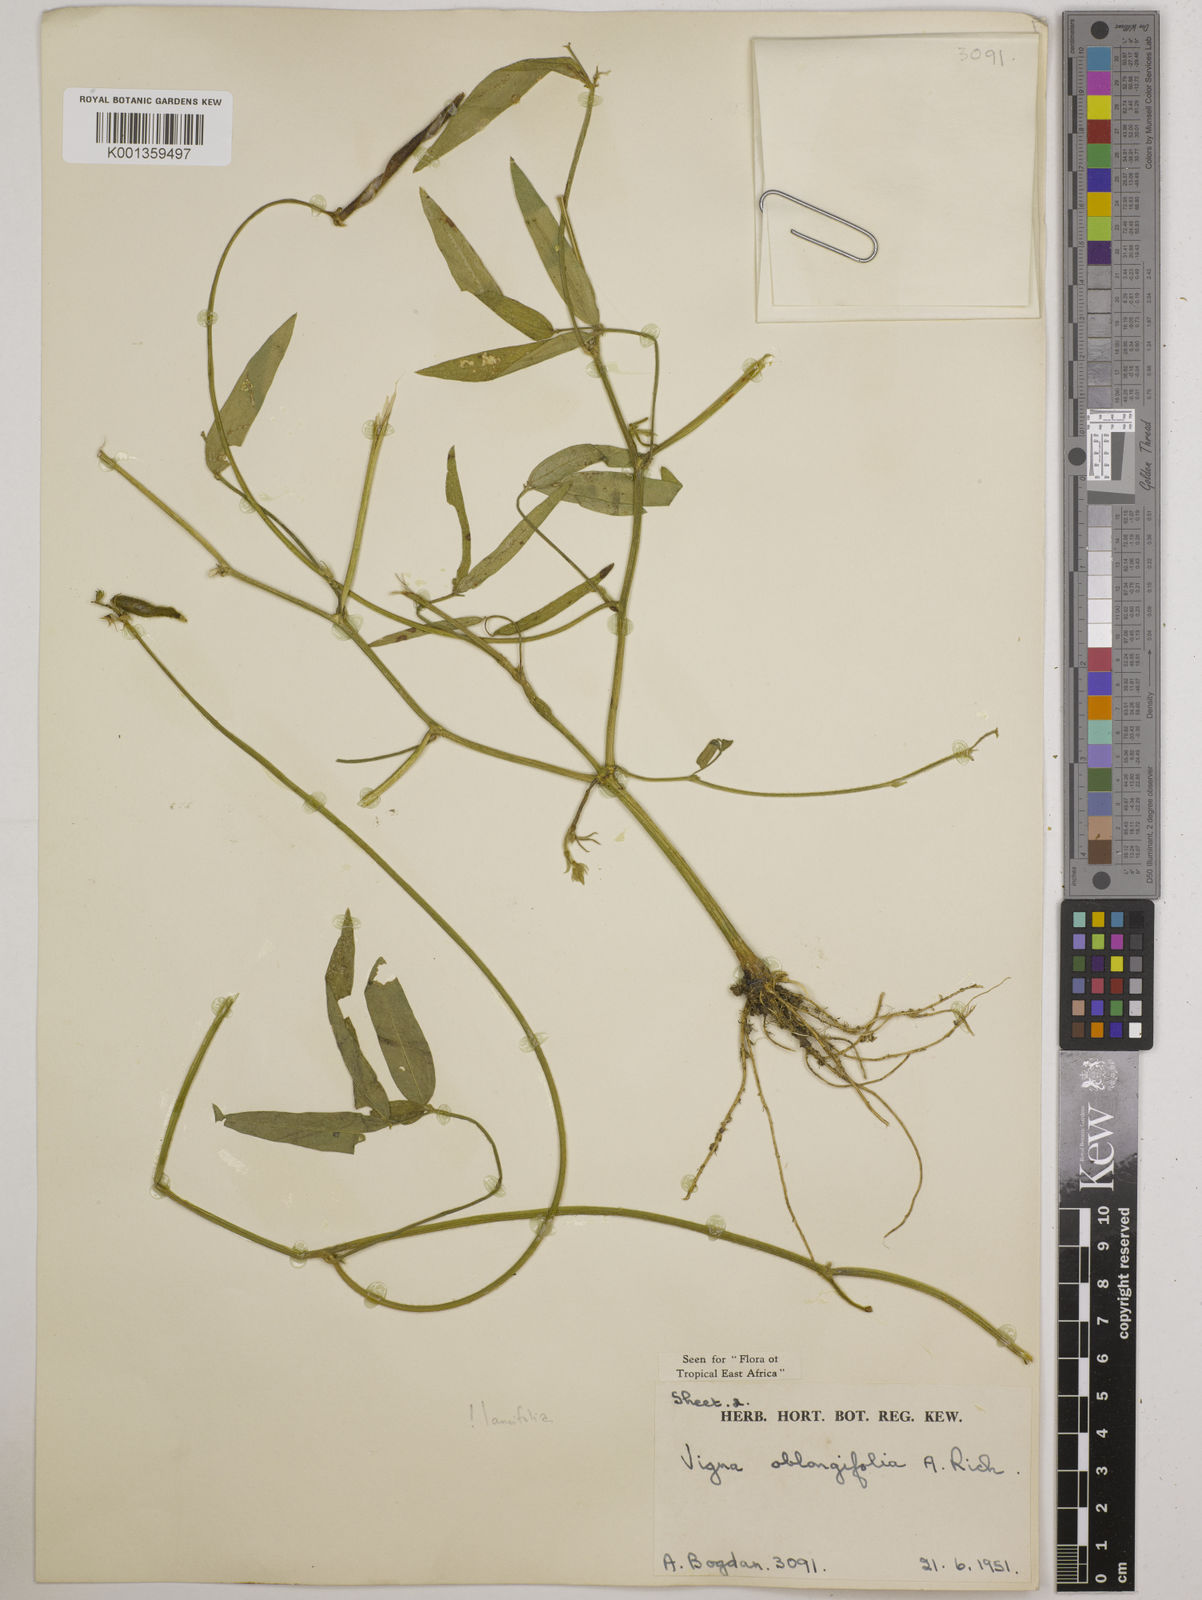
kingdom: Plantae
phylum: Tracheophyta
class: Magnoliopsida
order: Fabales
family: Fabaceae
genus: Vigna
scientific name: Vigna oblongifolia
